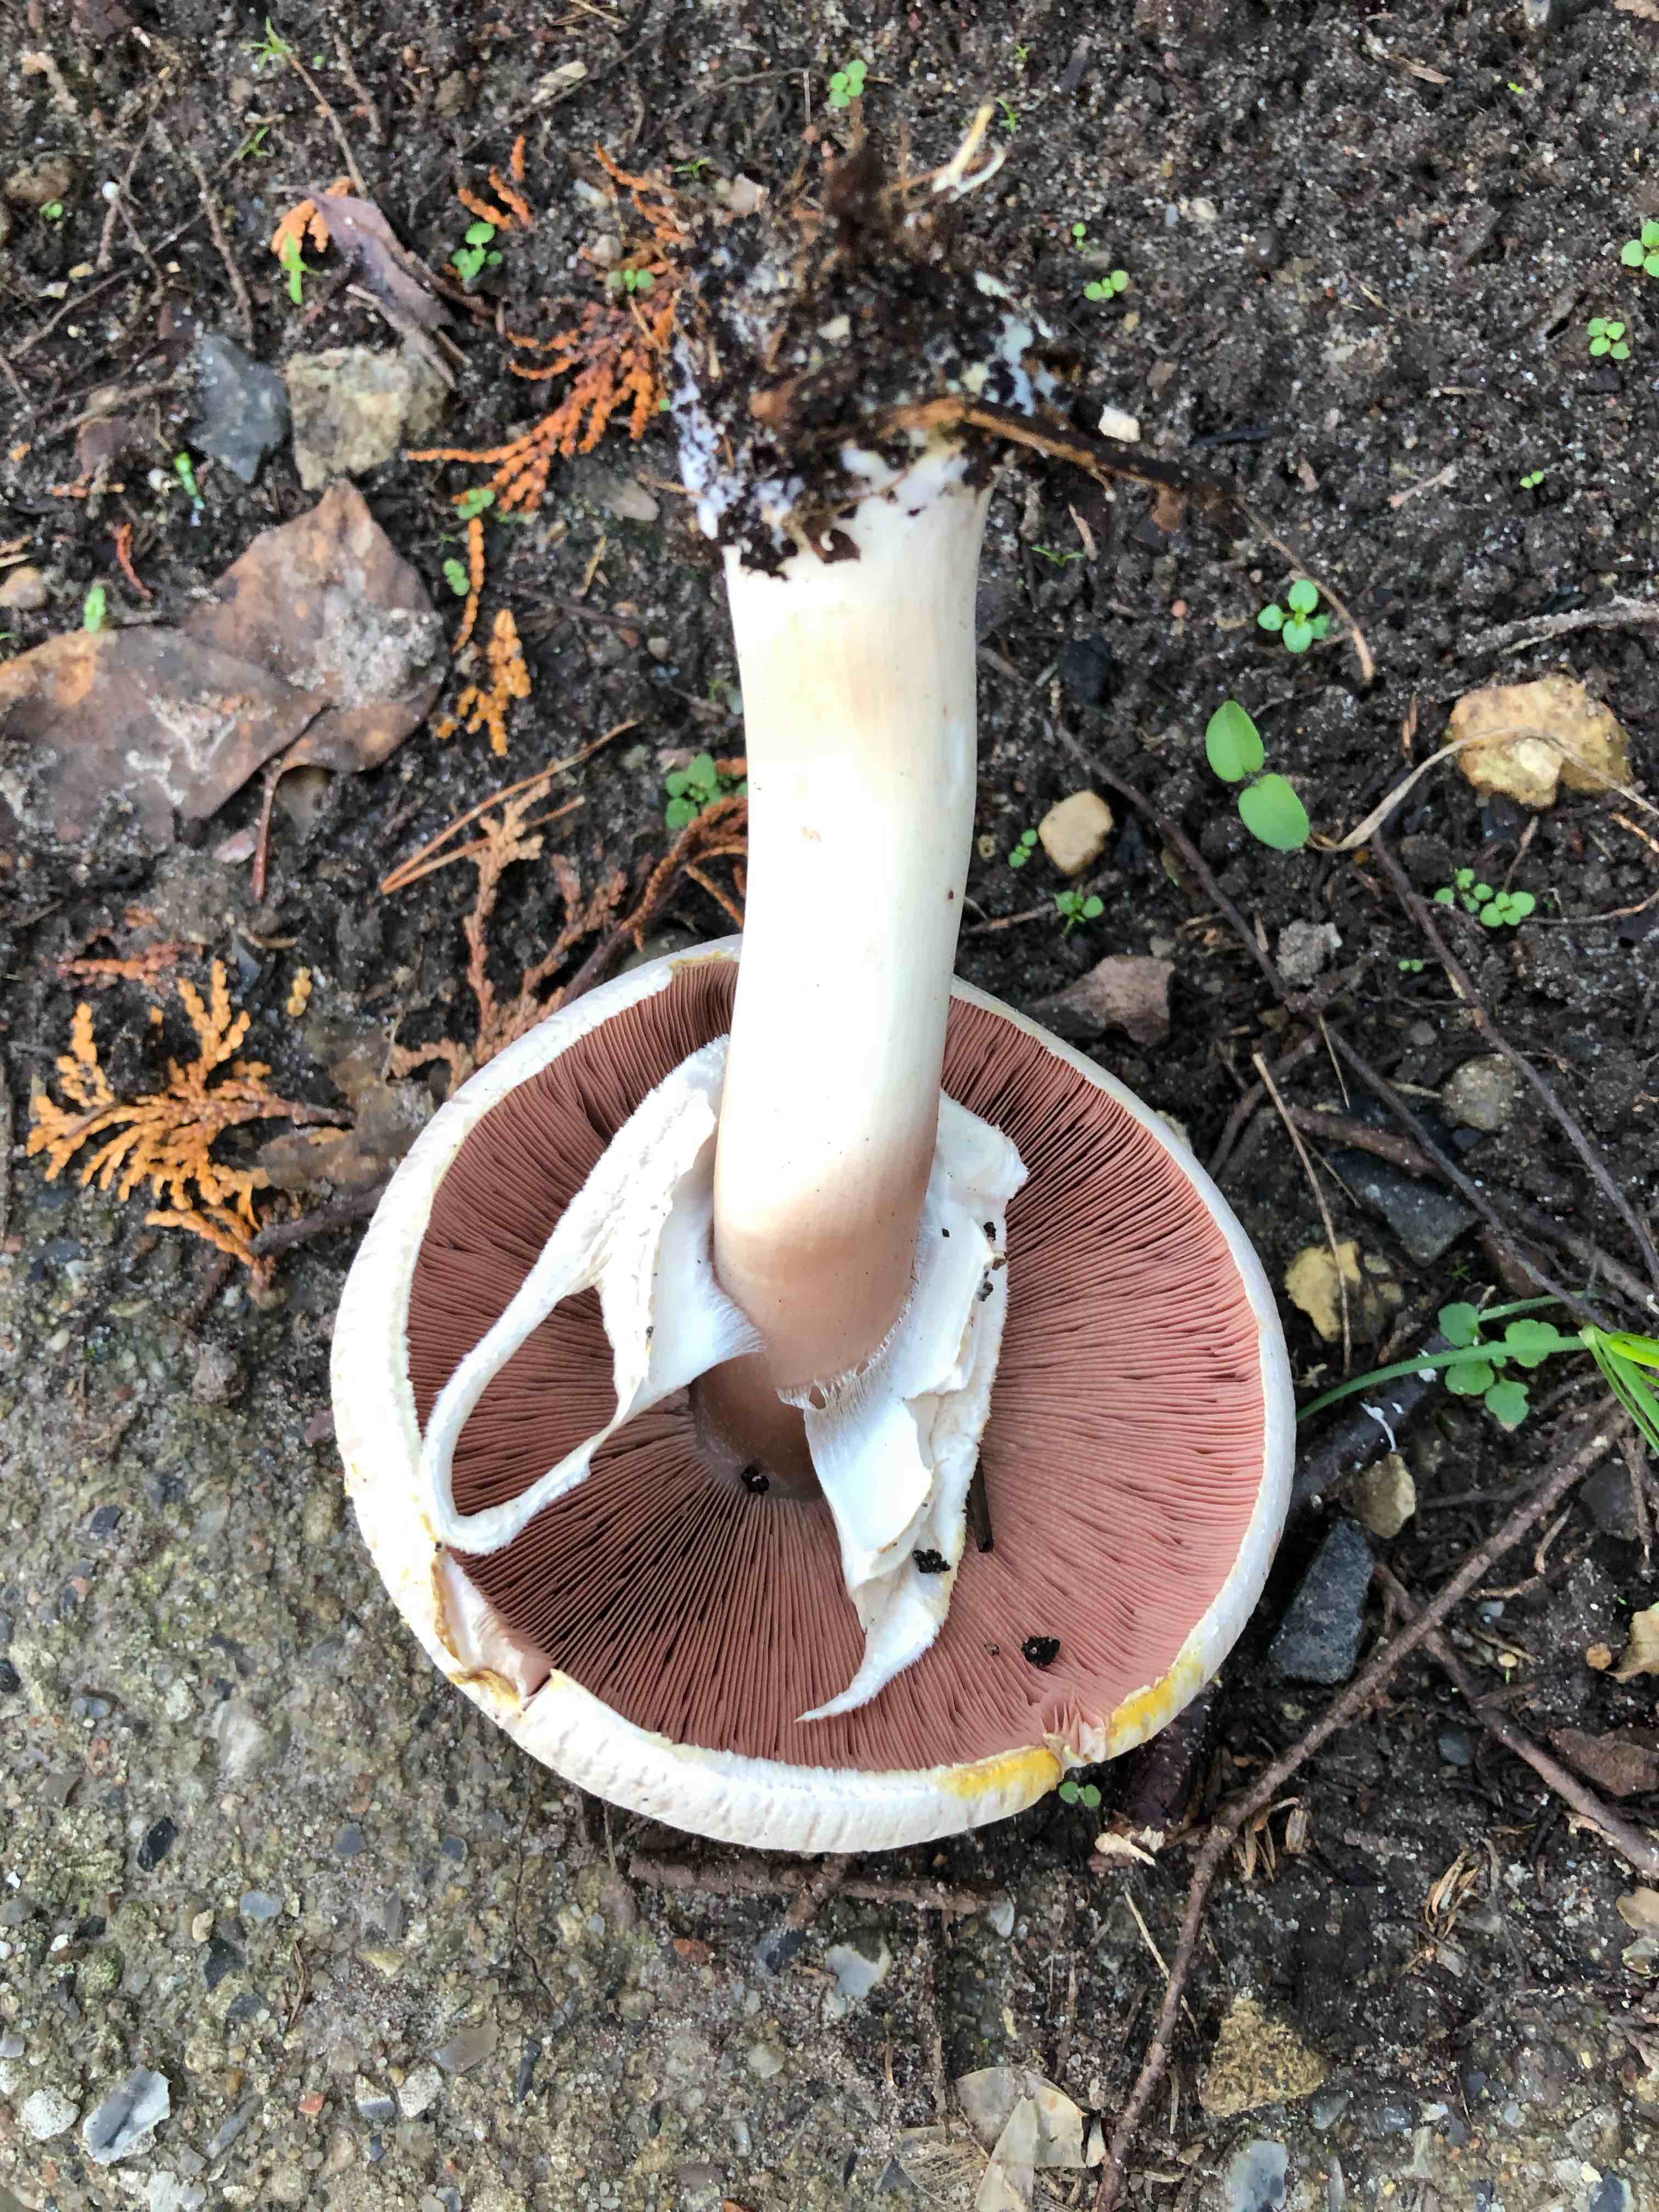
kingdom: Fungi
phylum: Basidiomycota
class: Agaricomycetes
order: Agaricales
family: Agaricaceae
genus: Agaricus
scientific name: Agaricus xanthodermus
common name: karbol-champignon
